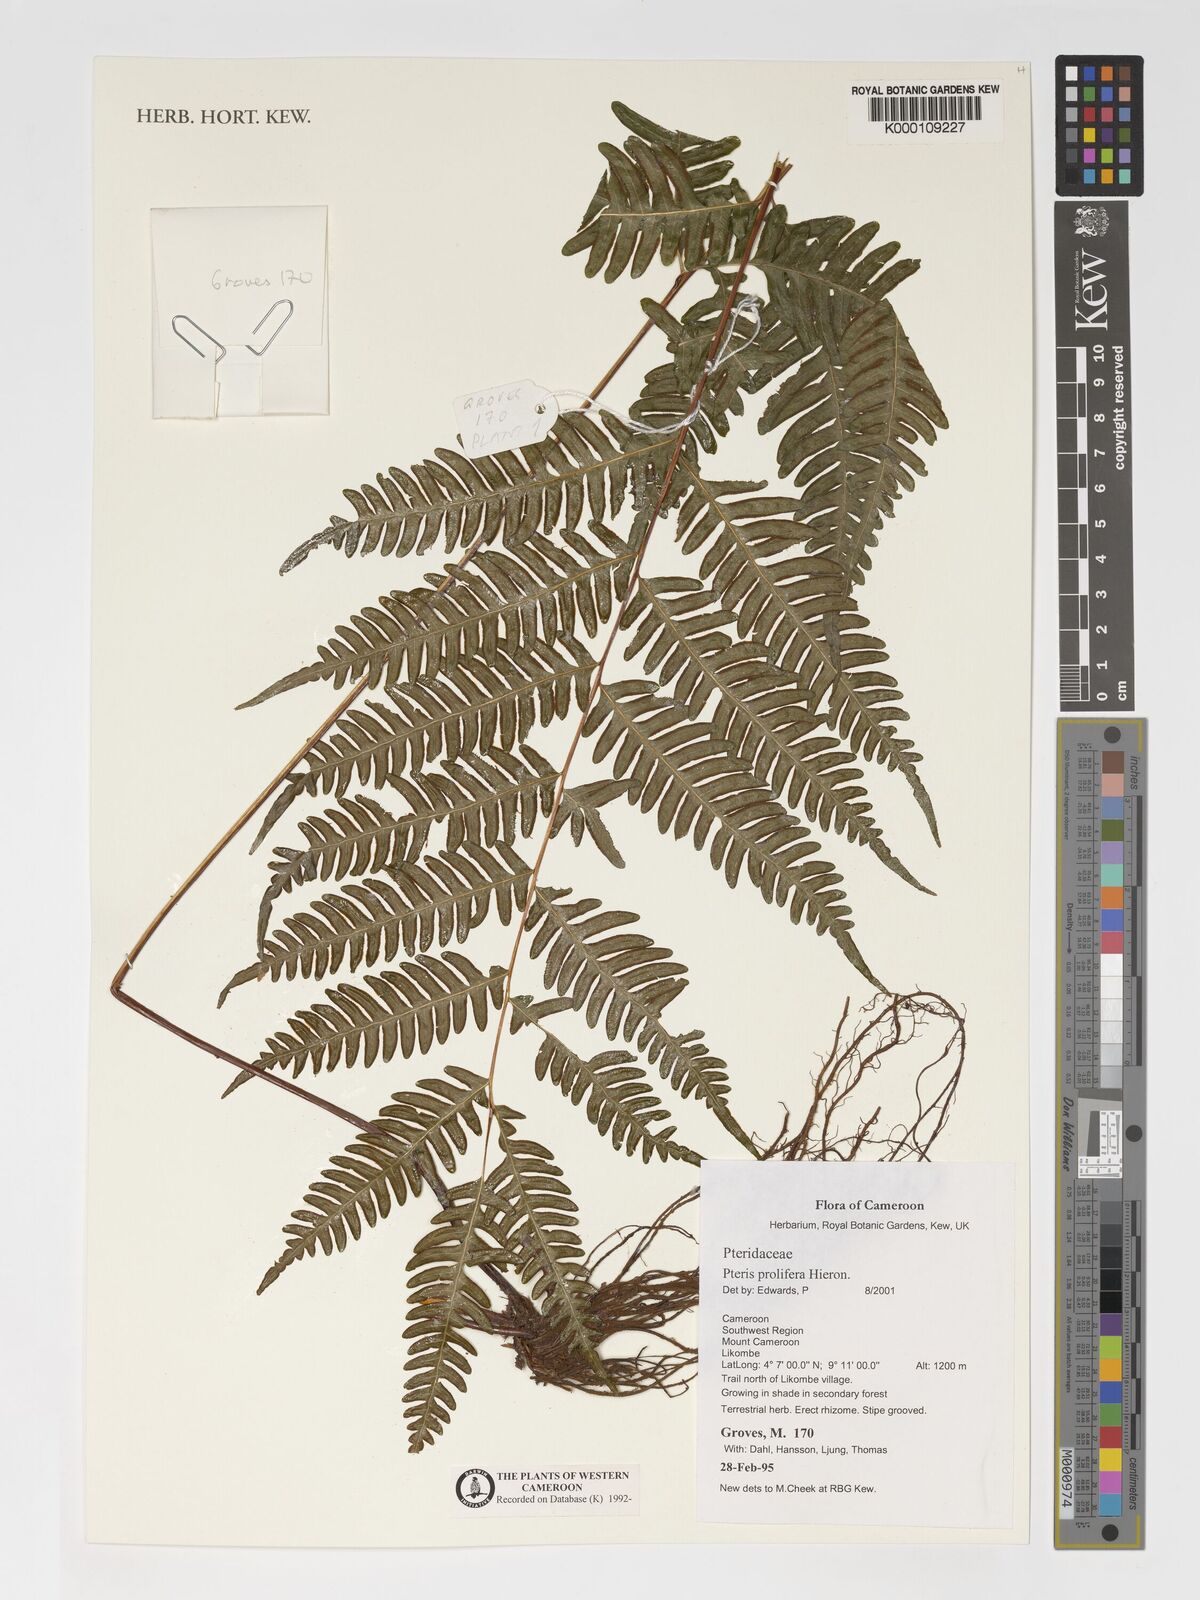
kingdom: Plantae
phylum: Tracheophyta
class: Polypodiopsida
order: Polypodiales
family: Pteridaceae
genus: Pteris
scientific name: Pteris preussii
